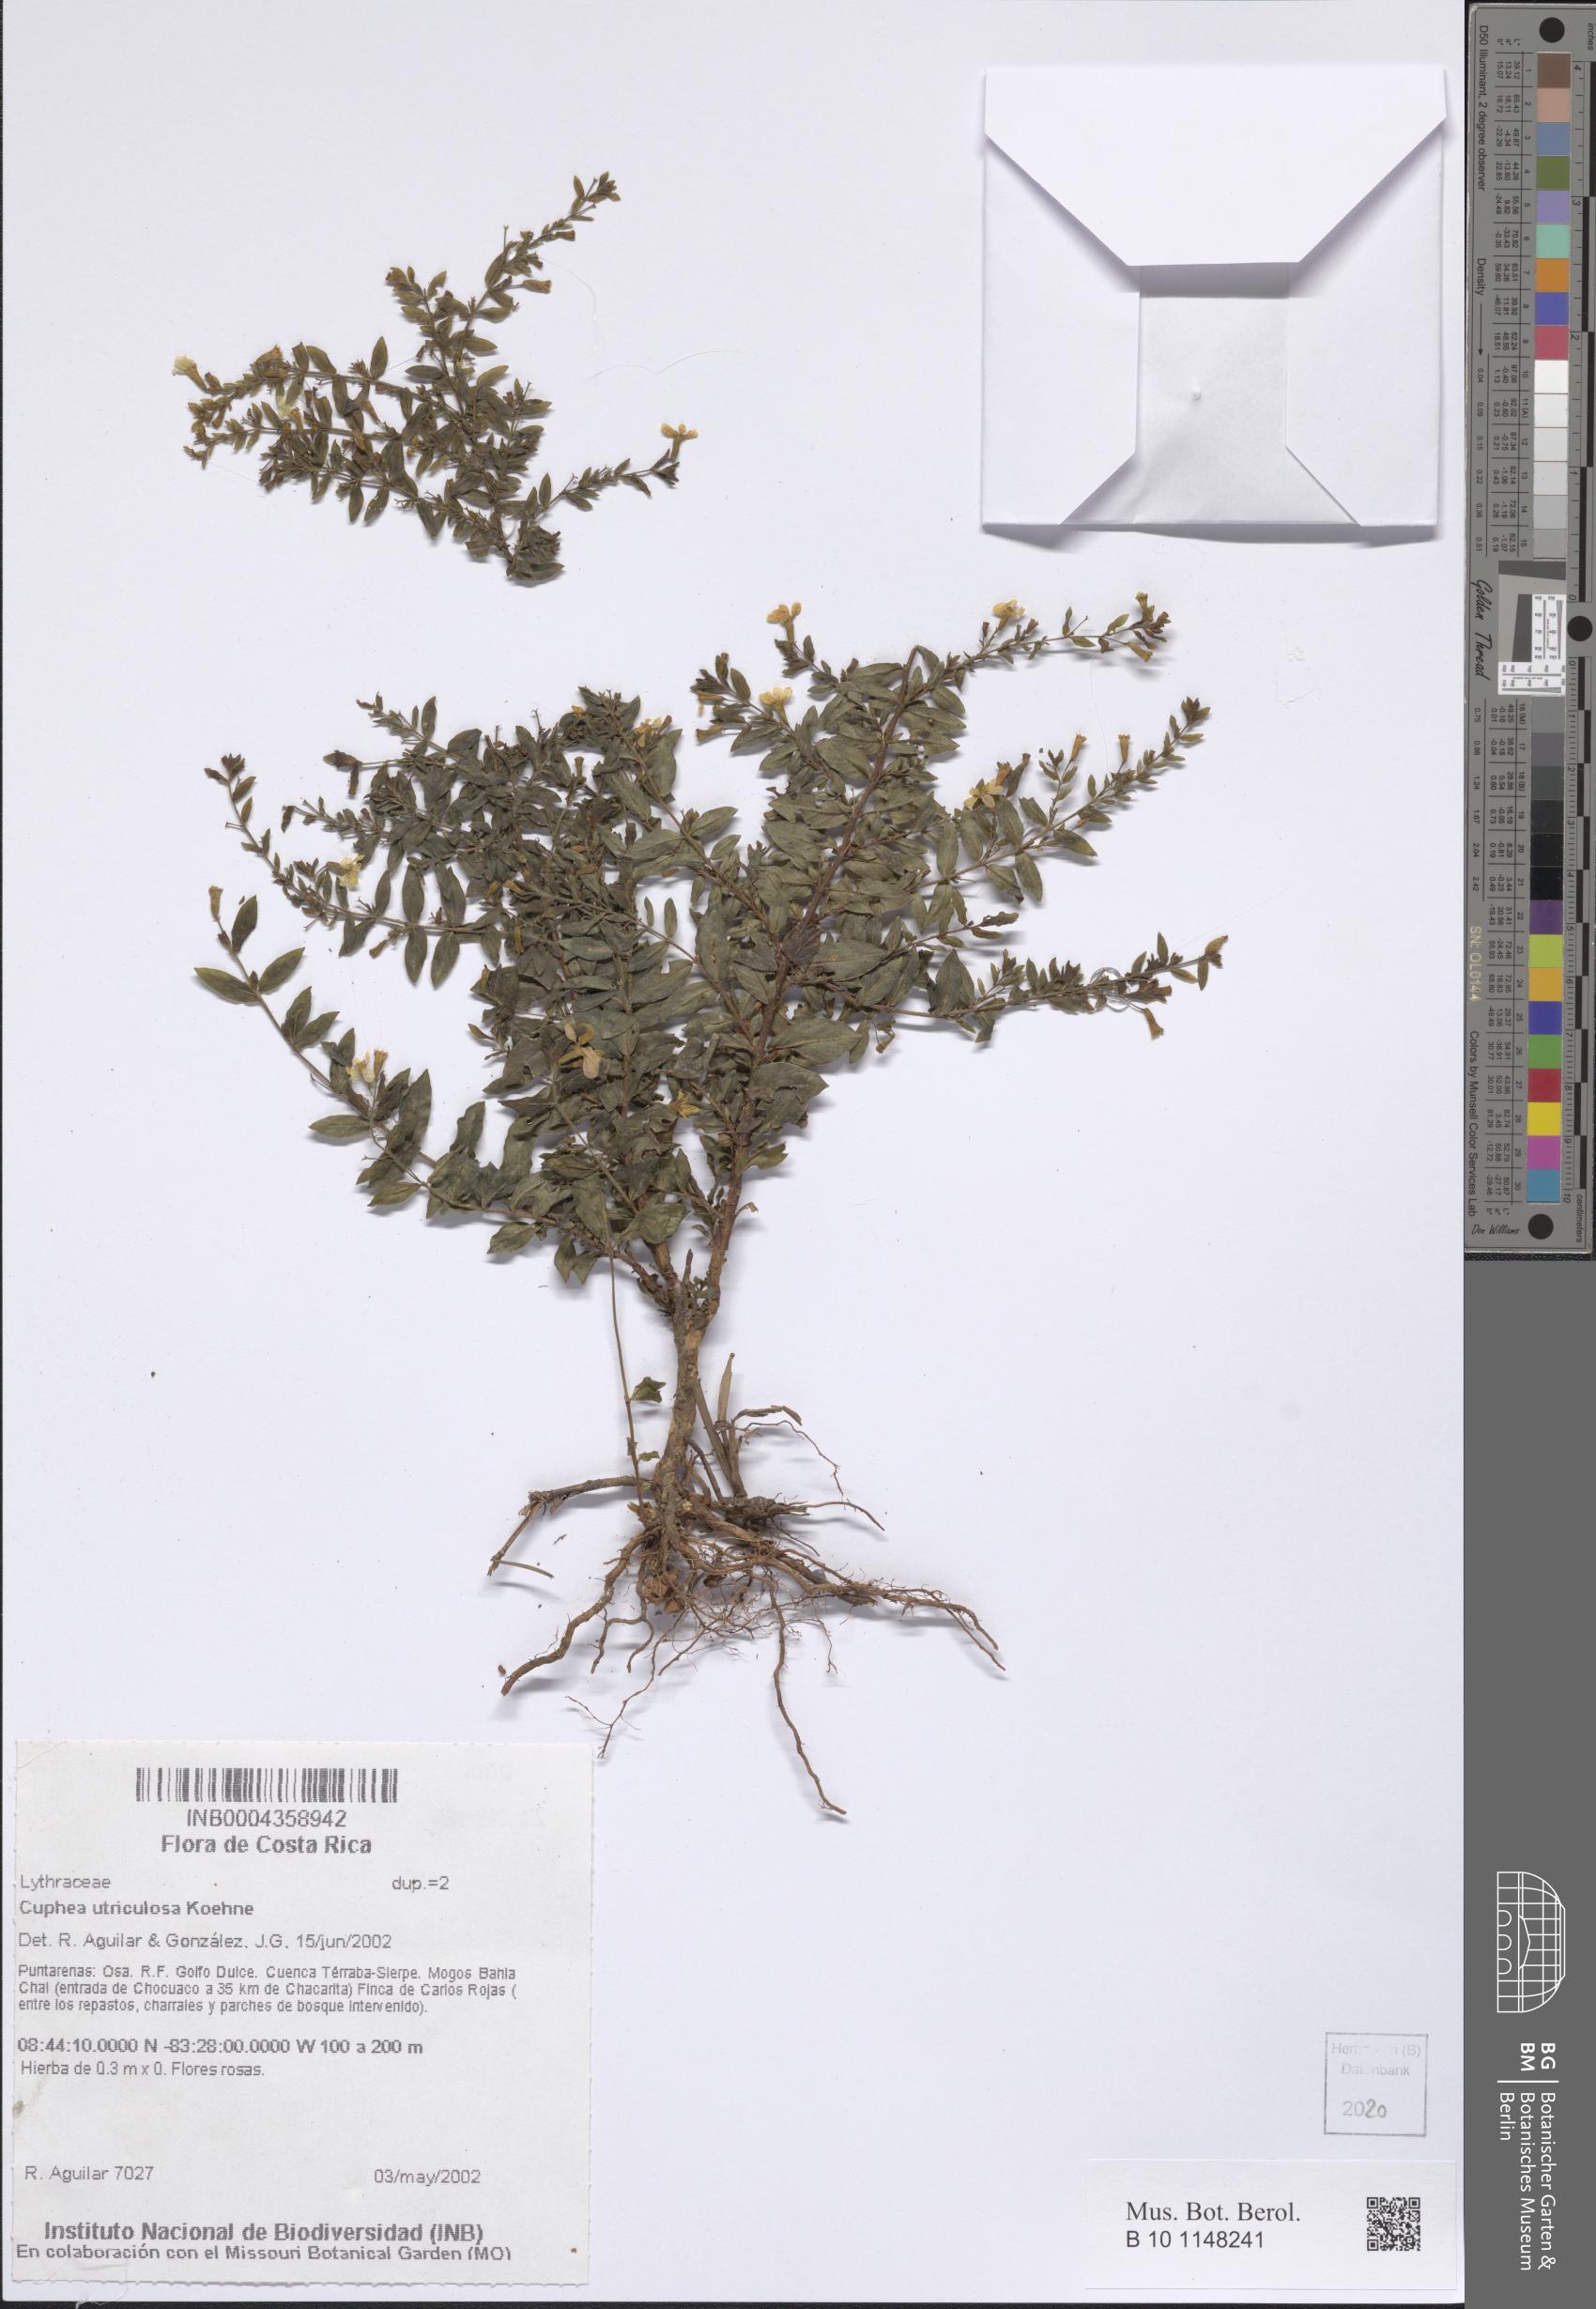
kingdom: Plantae
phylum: Tracheophyta
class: Magnoliopsida
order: Myrtales
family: Lythraceae
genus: Cuphea
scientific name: Cuphea utriculosa
